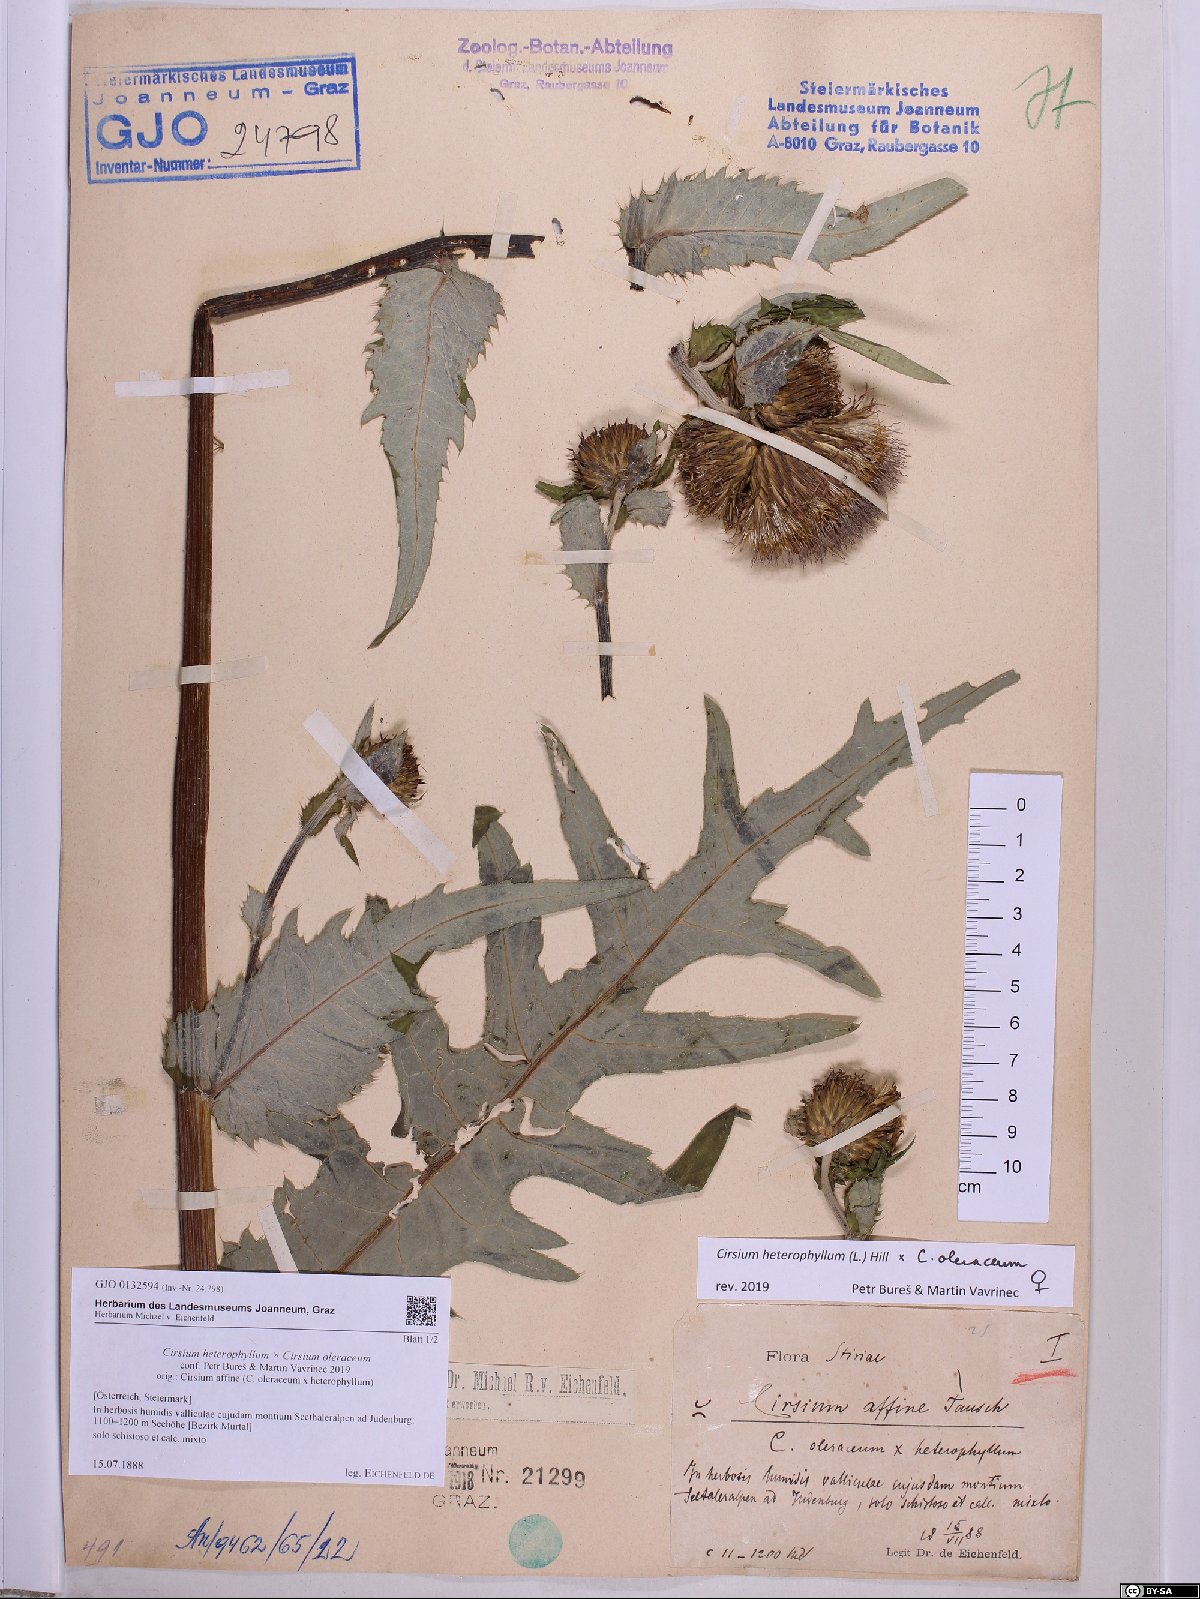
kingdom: Plantae
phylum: Tracheophyta
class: Magnoliopsida
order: Asterales
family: Asteraceae
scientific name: Asteraceae
